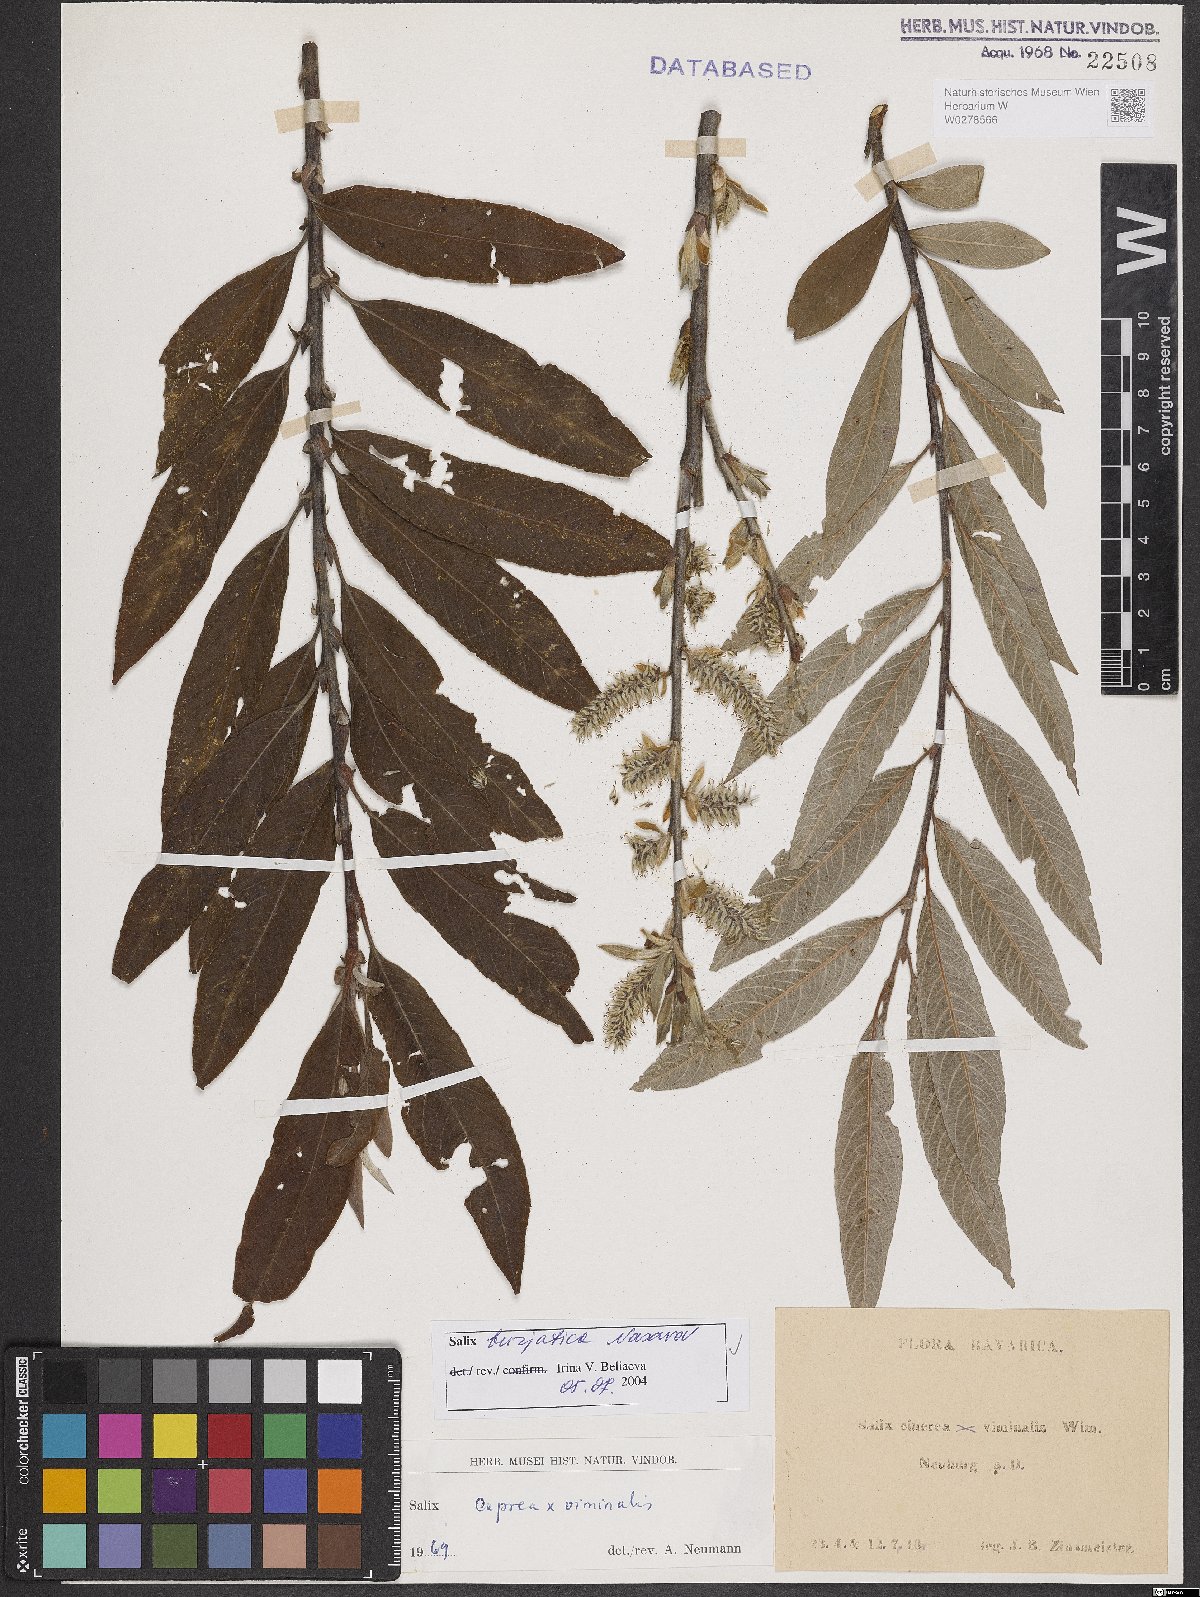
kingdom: Plantae
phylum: Tracheophyta
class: Magnoliopsida
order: Malpighiales
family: Salicaceae
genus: Salix
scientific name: Salix gmelinii
